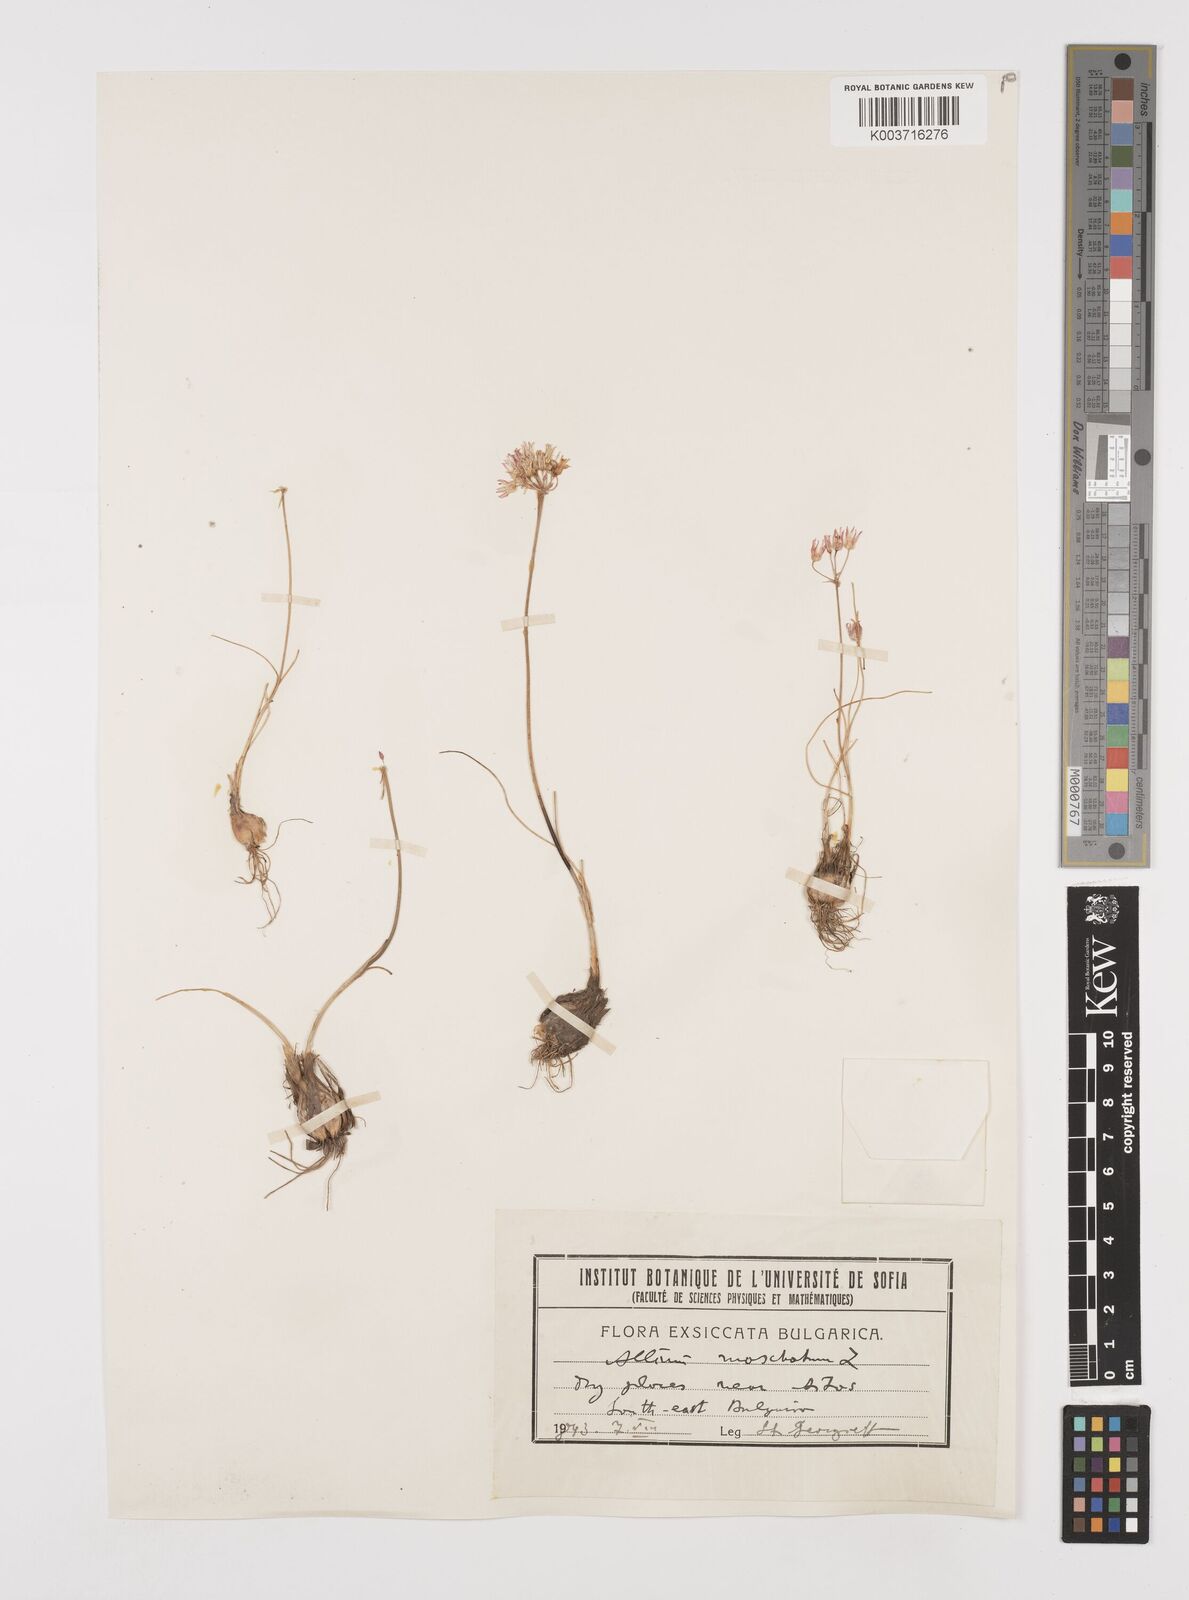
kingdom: Plantae
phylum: Tracheophyta
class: Liliopsida
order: Asparagales
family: Amaryllidaceae
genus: Allium
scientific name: Allium moschatum
